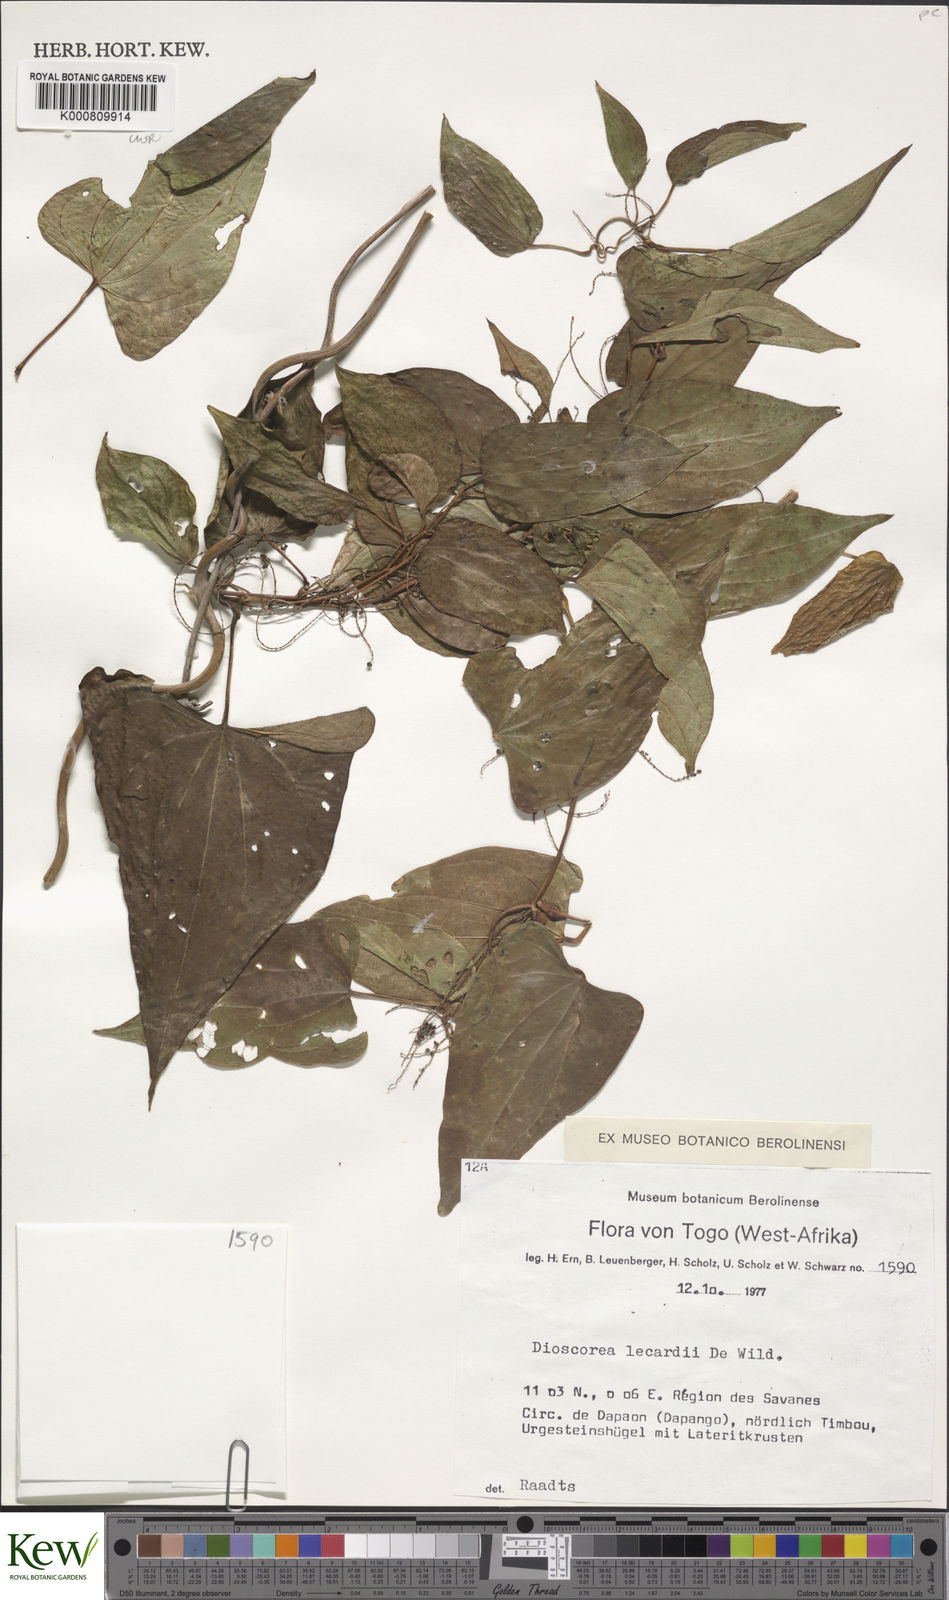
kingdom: Plantae
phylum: Tracheophyta
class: Liliopsida
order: Dioscoreales
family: Dioscoreaceae
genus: Dioscorea
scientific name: Dioscorea sagittifolia
